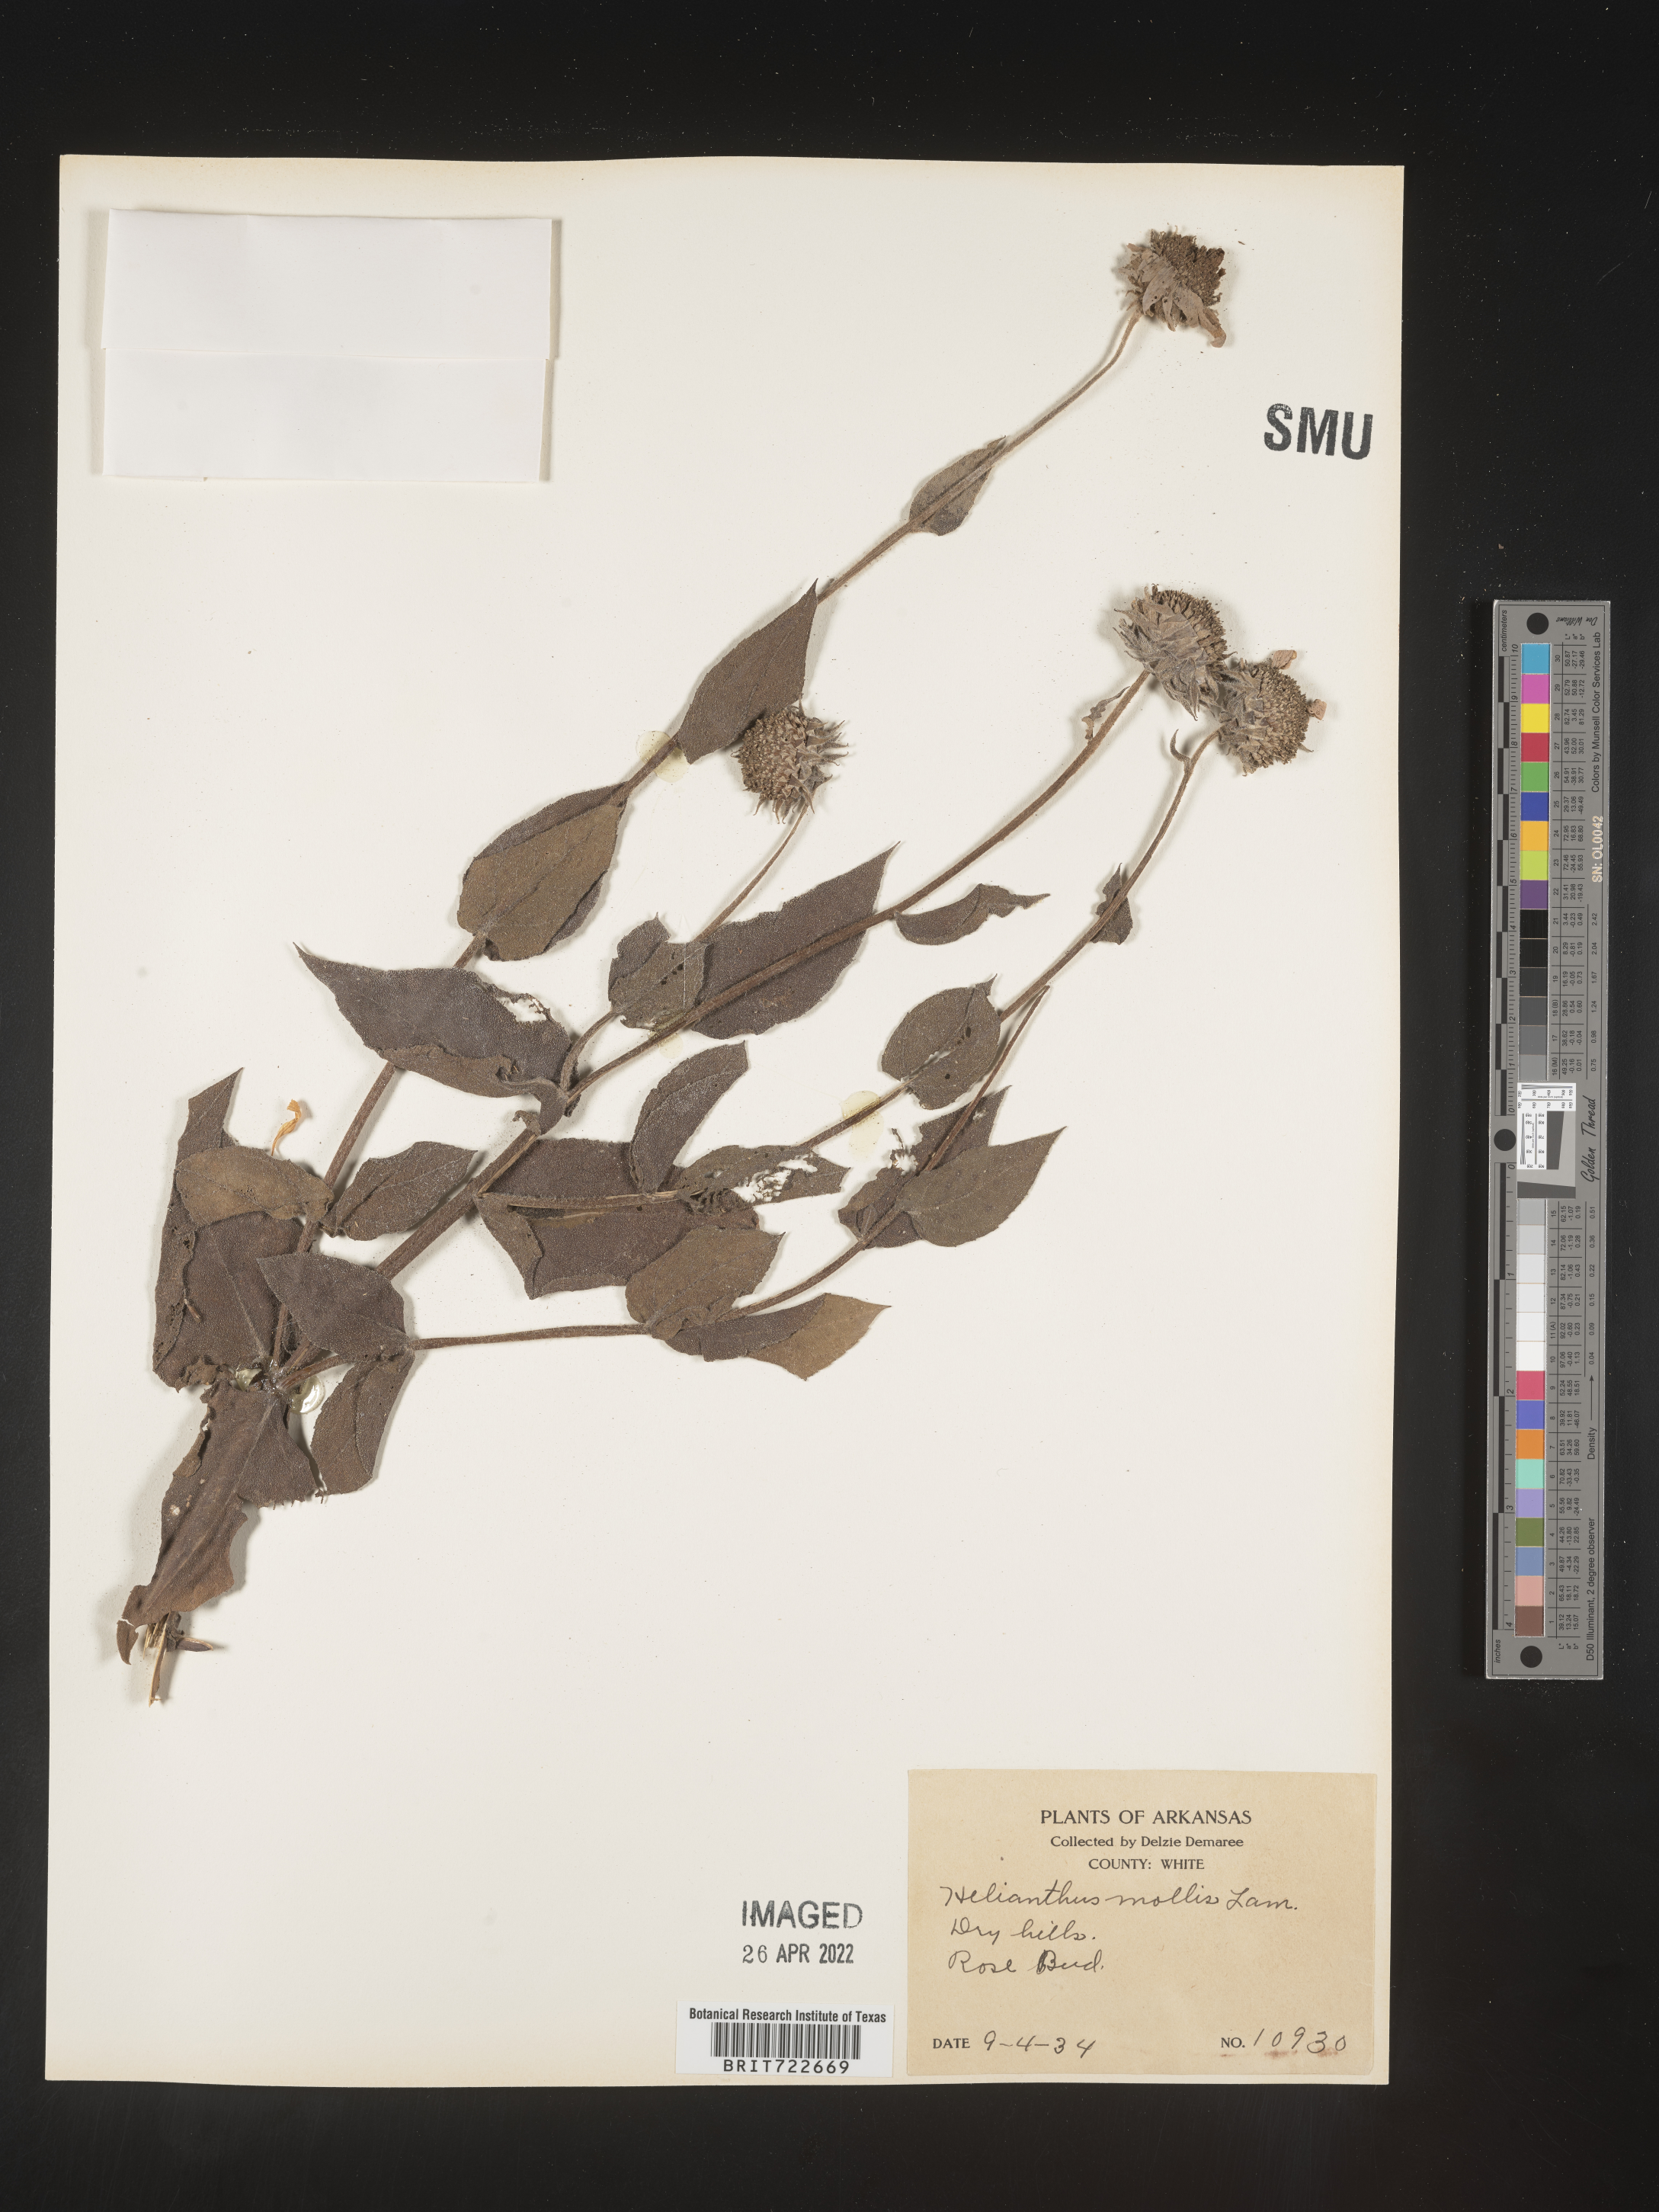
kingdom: Plantae
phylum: Tracheophyta
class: Magnoliopsida
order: Asterales
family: Asteraceae
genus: Helianthus
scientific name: Helianthus mollis
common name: Ashy sunflower
